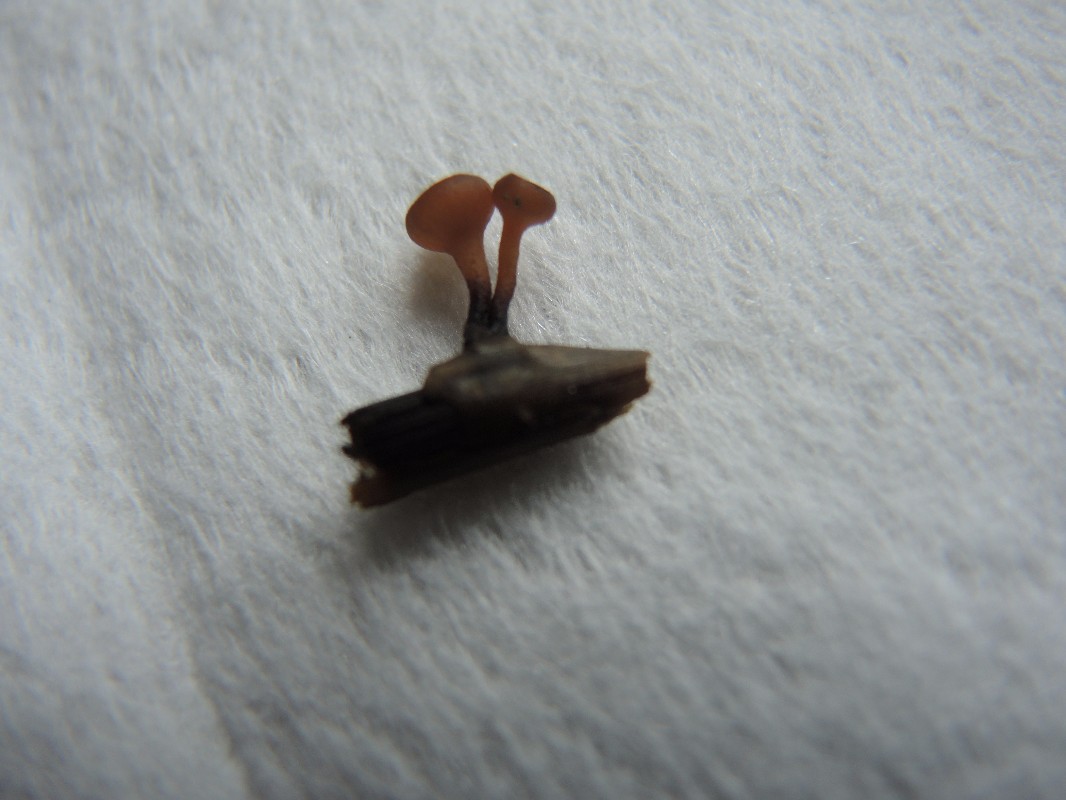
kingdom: Fungi
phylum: Ascomycota
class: Leotiomycetes
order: Helotiales
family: Sclerotiniaceae
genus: Myriosclerotinia
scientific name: Myriosclerotinia curreyana
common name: siv-knoldskive
